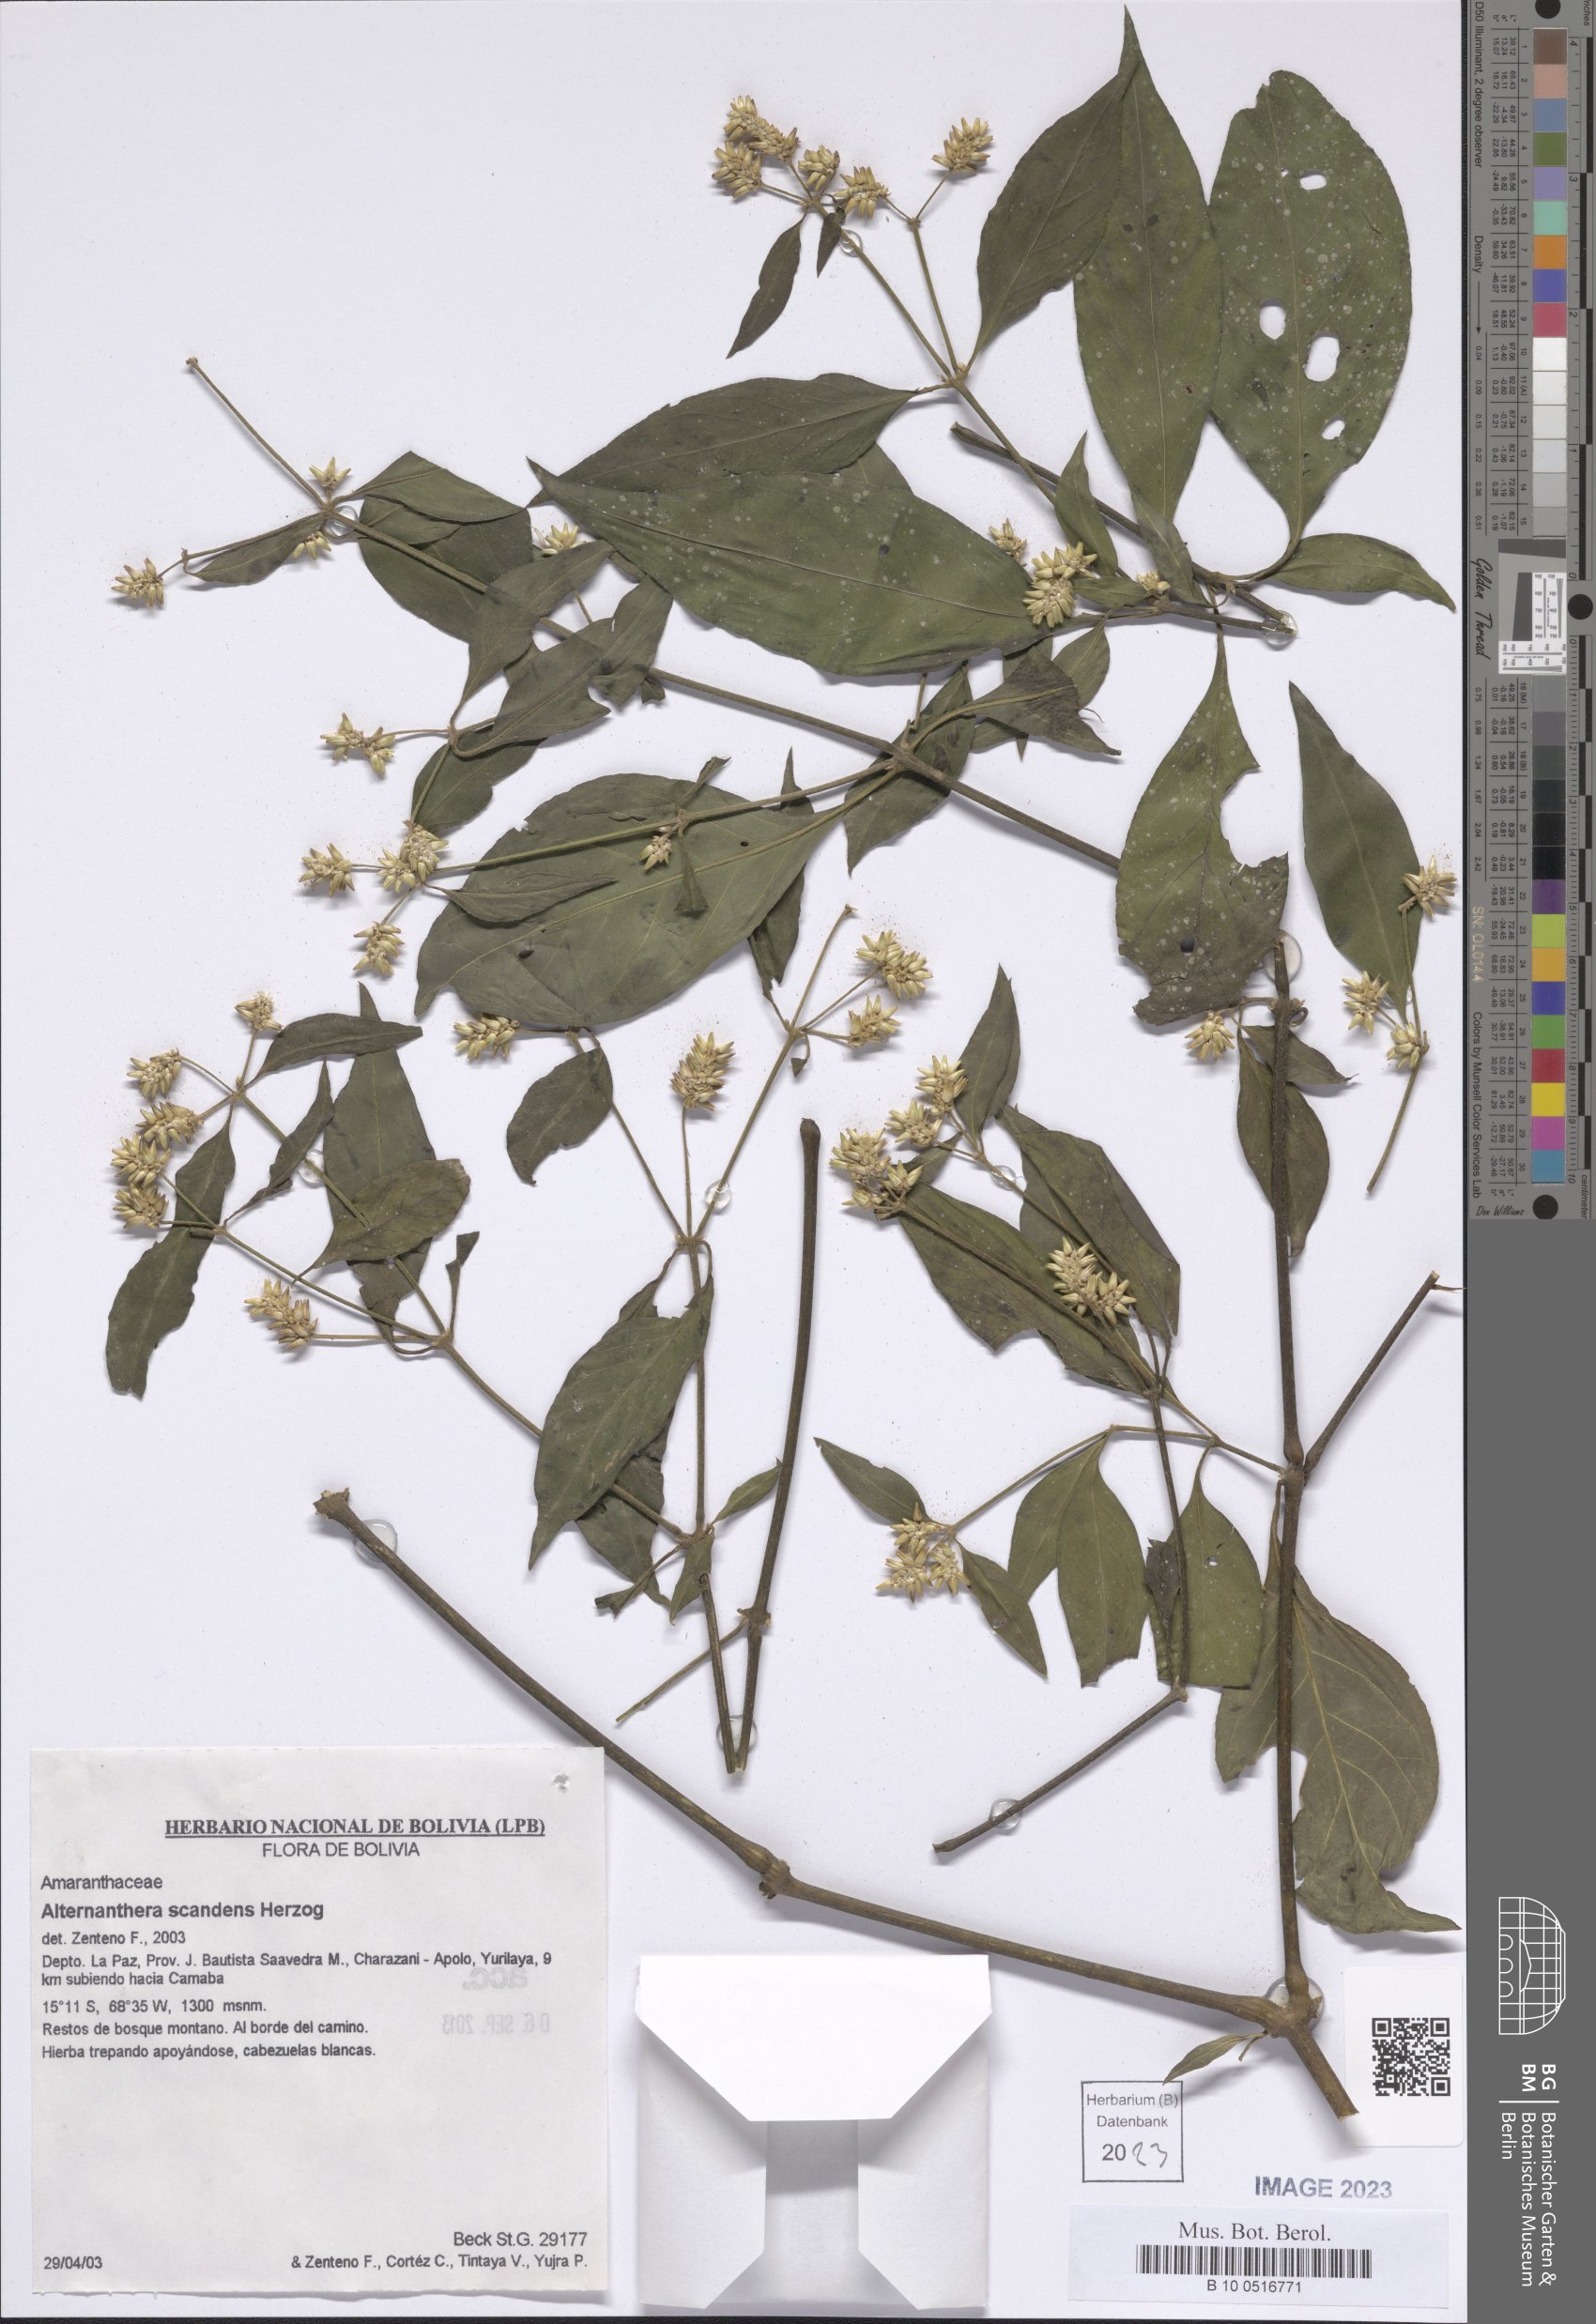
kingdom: Plantae
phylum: Tracheophyta
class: Magnoliopsida
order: Caryophyllales
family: Amaranthaceae
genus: Alternanthera
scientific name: Alternanthera scandens
